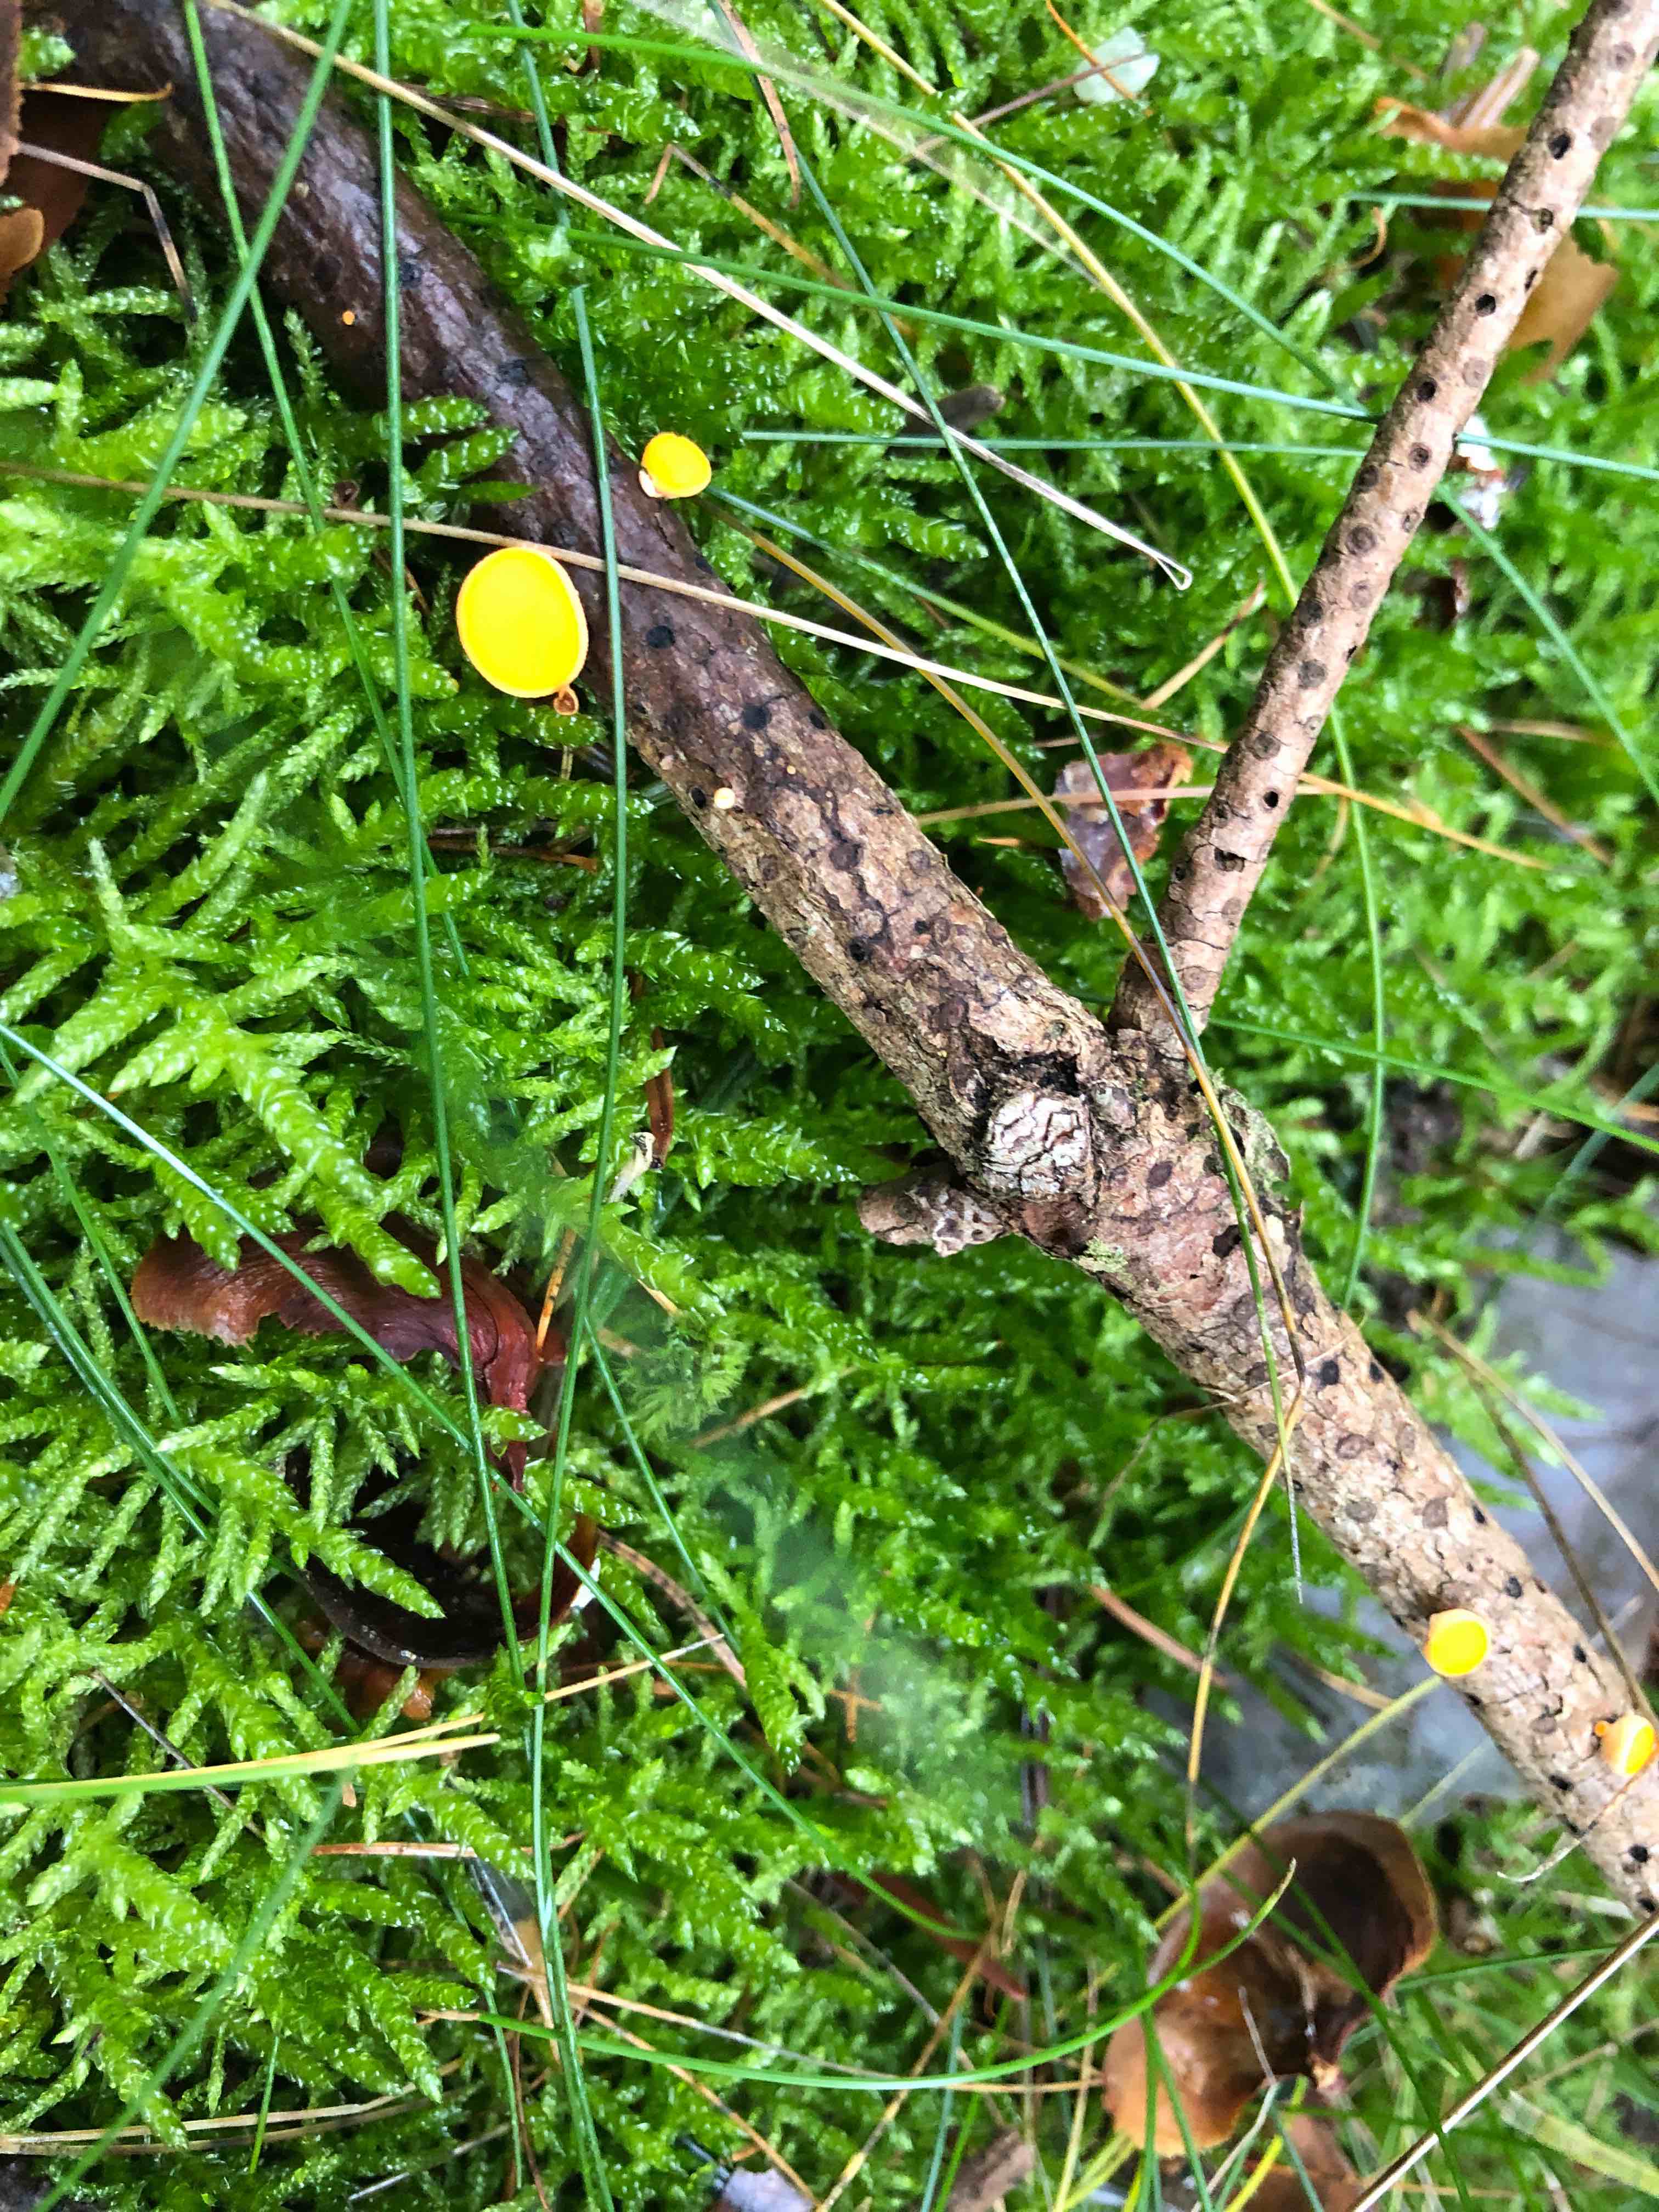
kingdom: Fungi
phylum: Ascomycota
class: Pezizomycetes
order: Pezizales
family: Sarcoscyphaceae
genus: Pithya
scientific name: Pithya vulgaris
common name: stor dukatbæger
